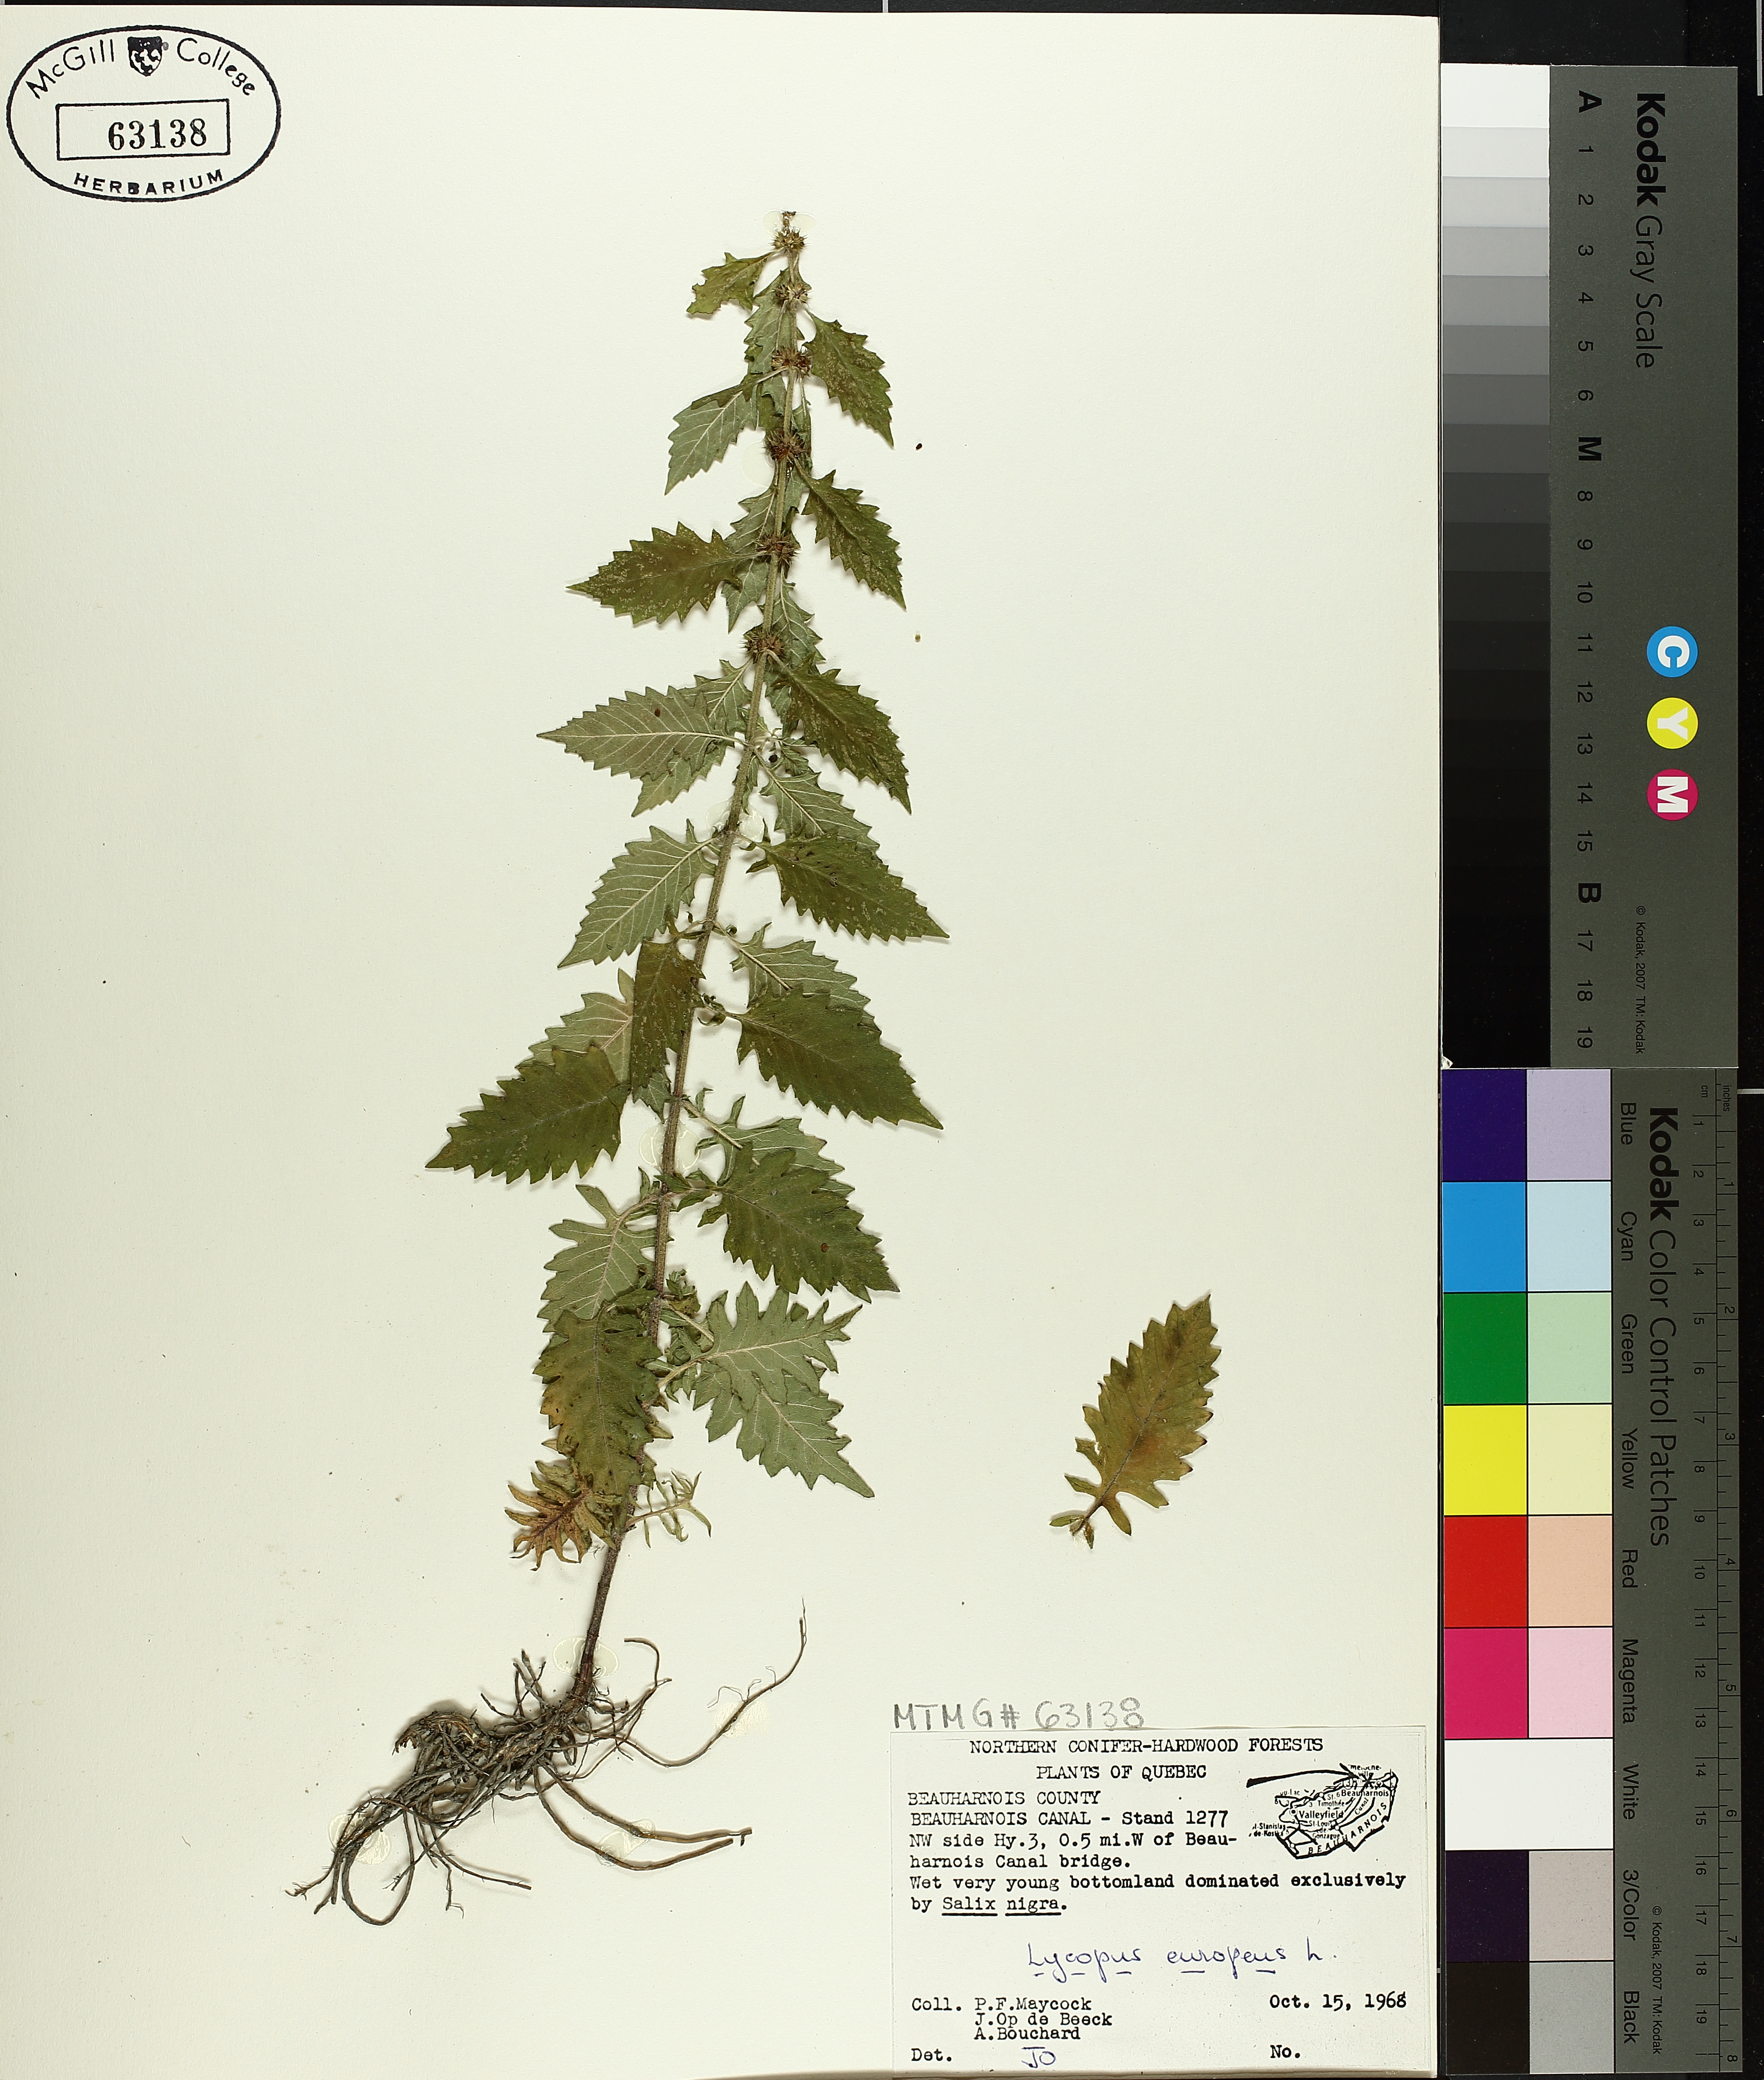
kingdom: Plantae
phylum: Tracheophyta
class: Magnoliopsida
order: Lamiales
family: Lamiaceae
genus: Lycopus
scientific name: Lycopus europaeus
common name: European bugleweed
